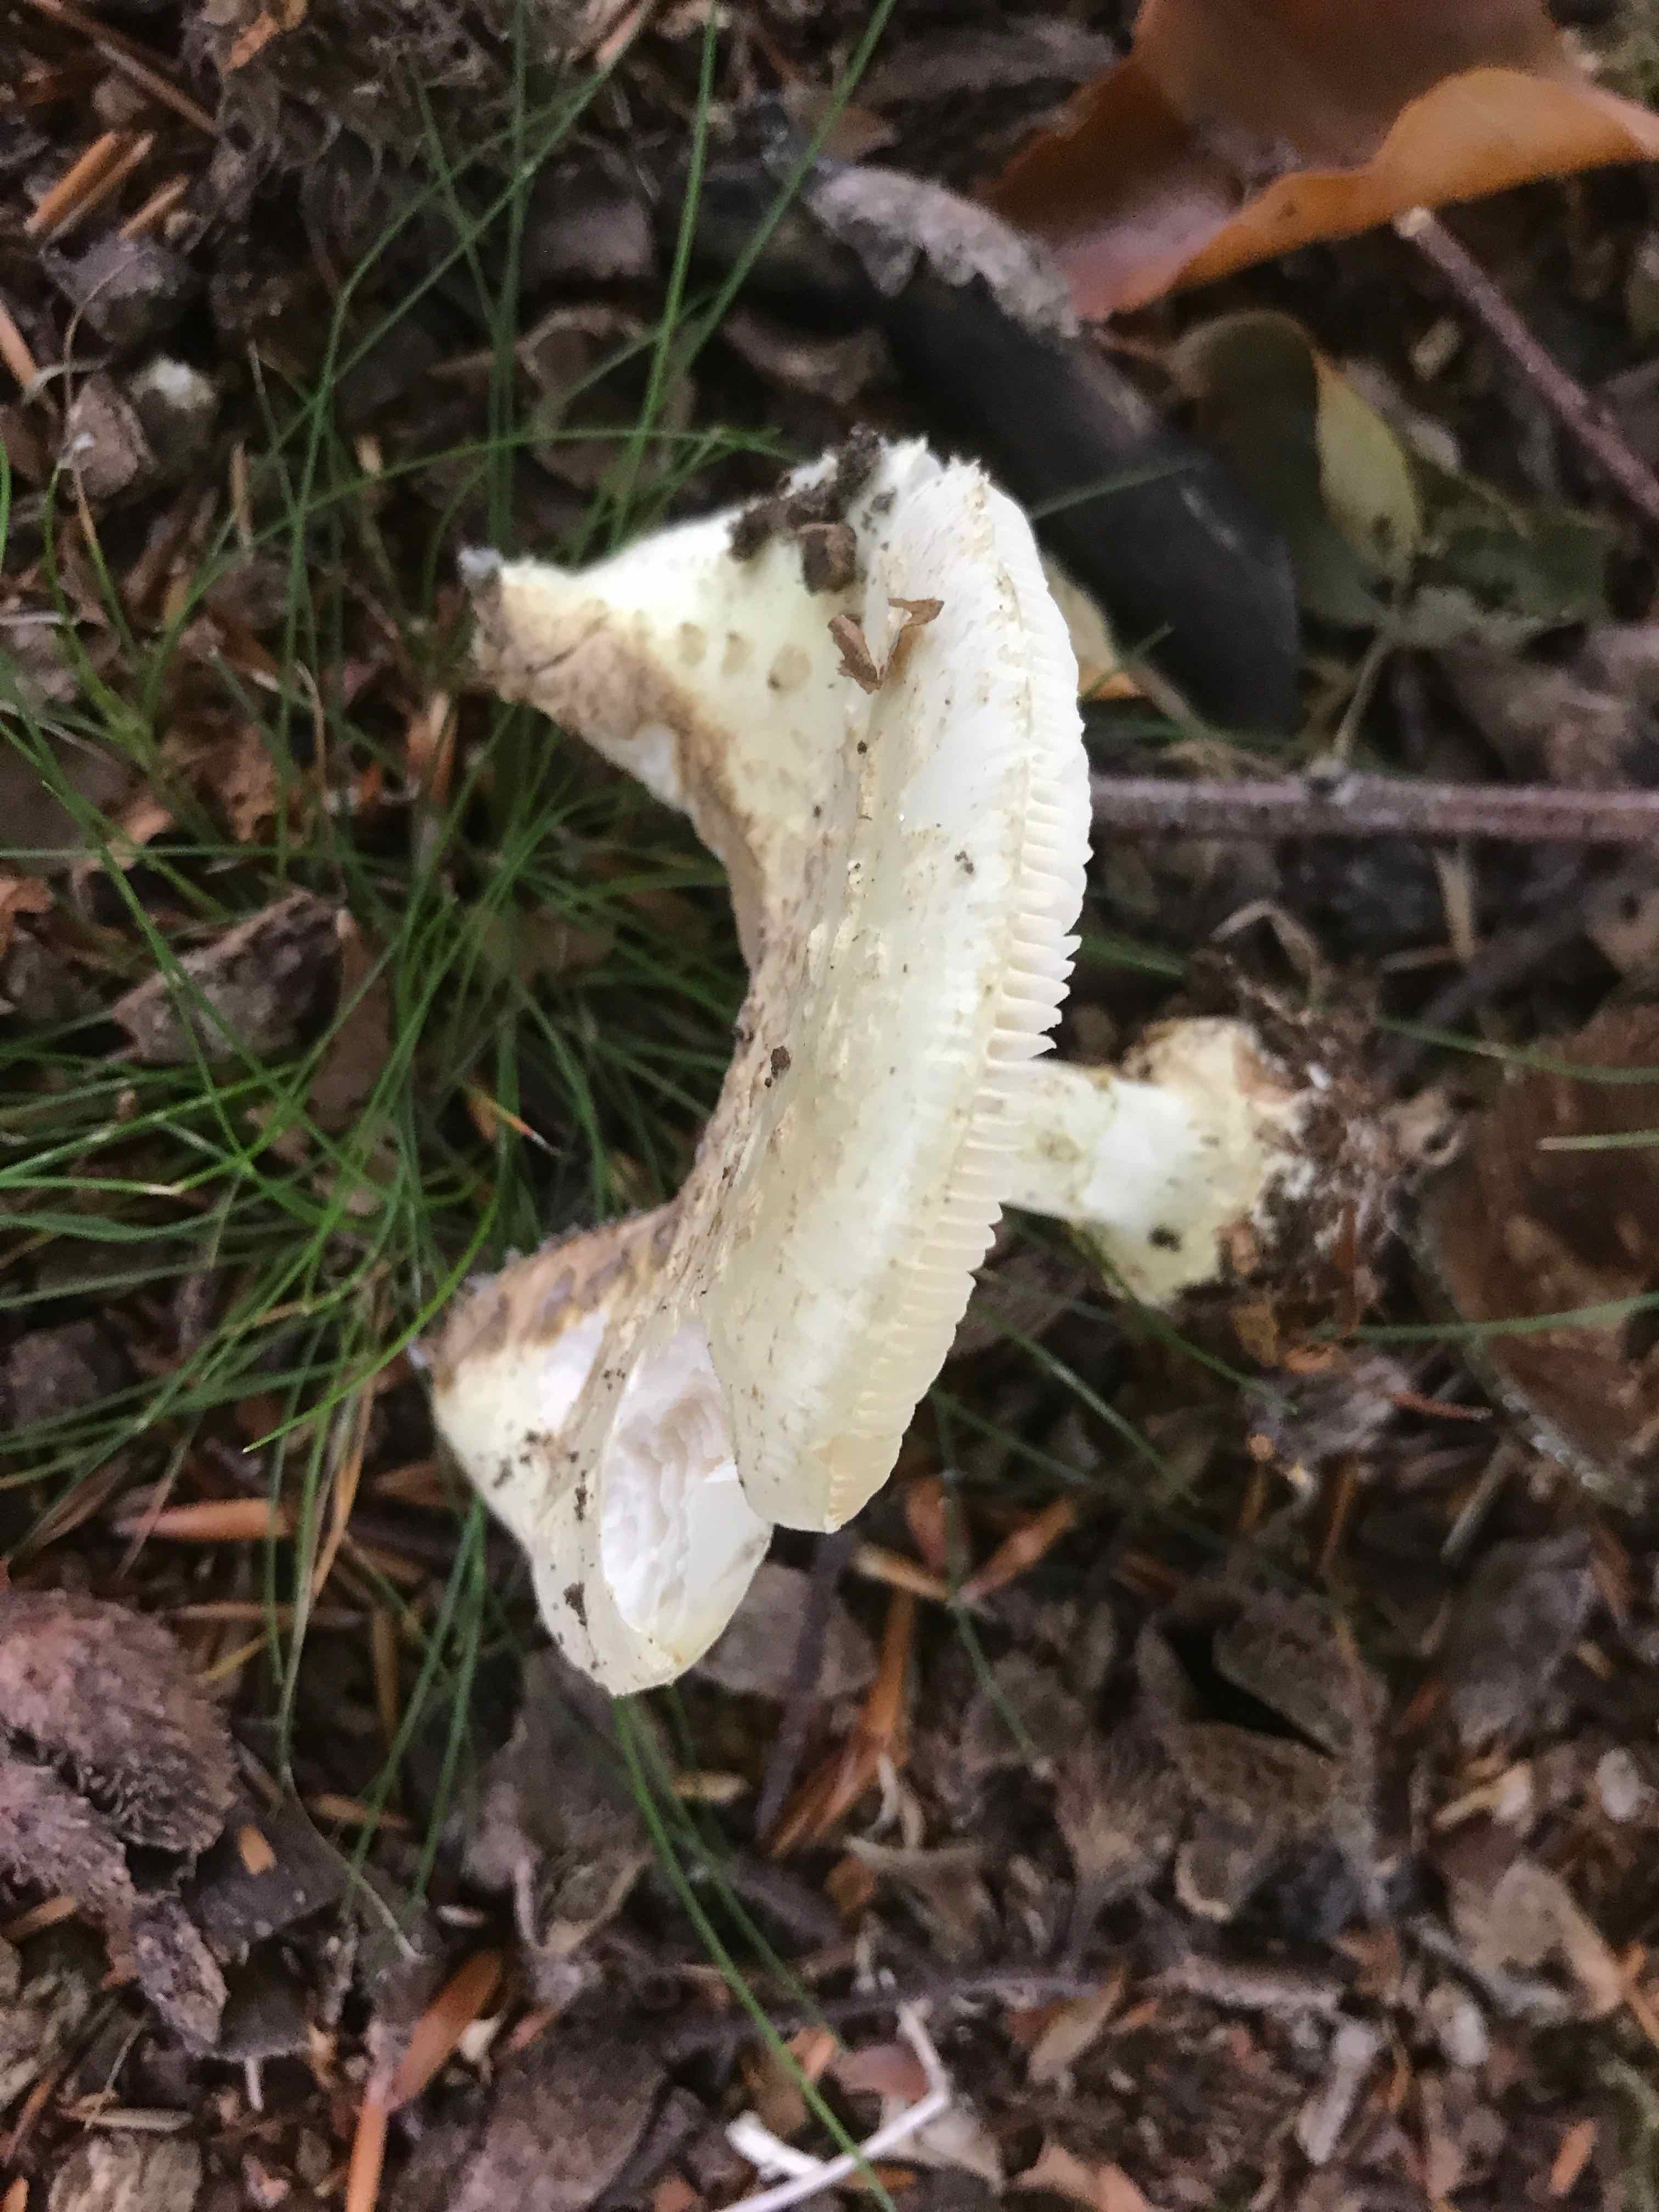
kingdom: Fungi
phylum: Basidiomycota
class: Agaricomycetes
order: Agaricales
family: Amanitaceae
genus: Amanita
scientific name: Amanita citrina
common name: kugleknoldet fluesvamp
